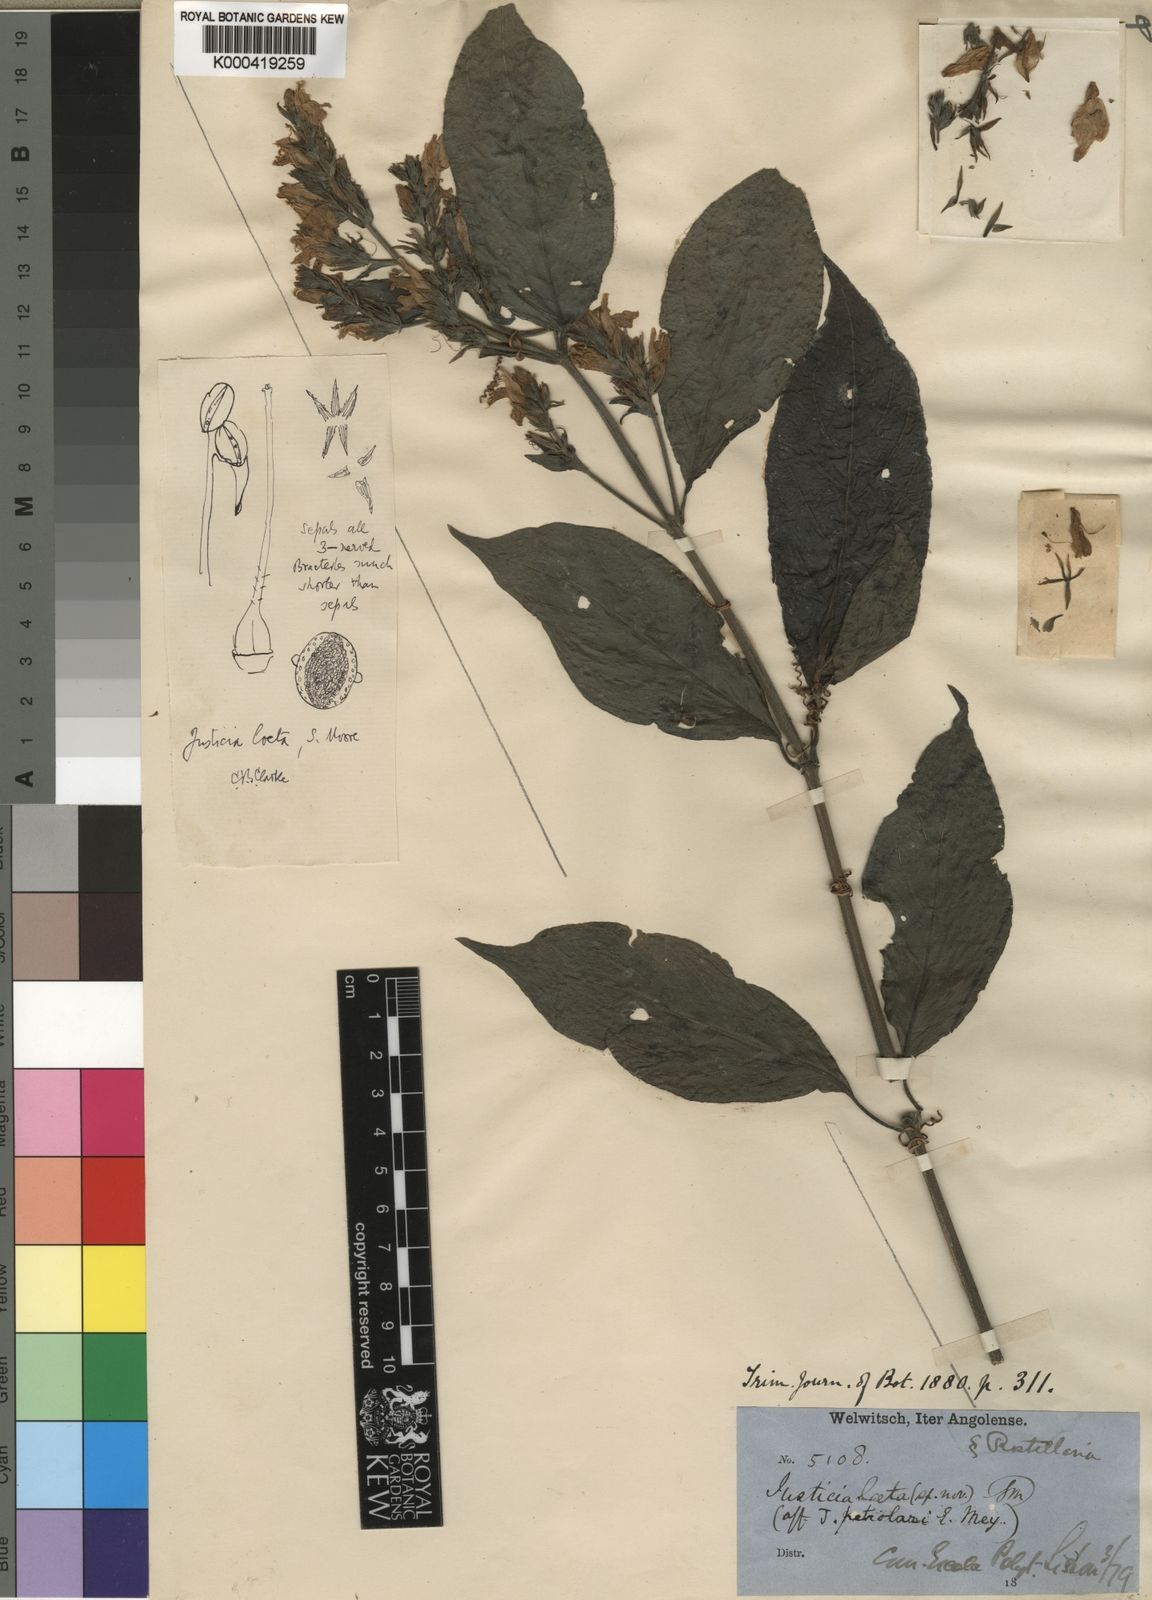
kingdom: Plantae
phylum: Tracheophyta
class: Magnoliopsida
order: Lamiales
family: Acanthaceae
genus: Monechma
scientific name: Monechma laeta
